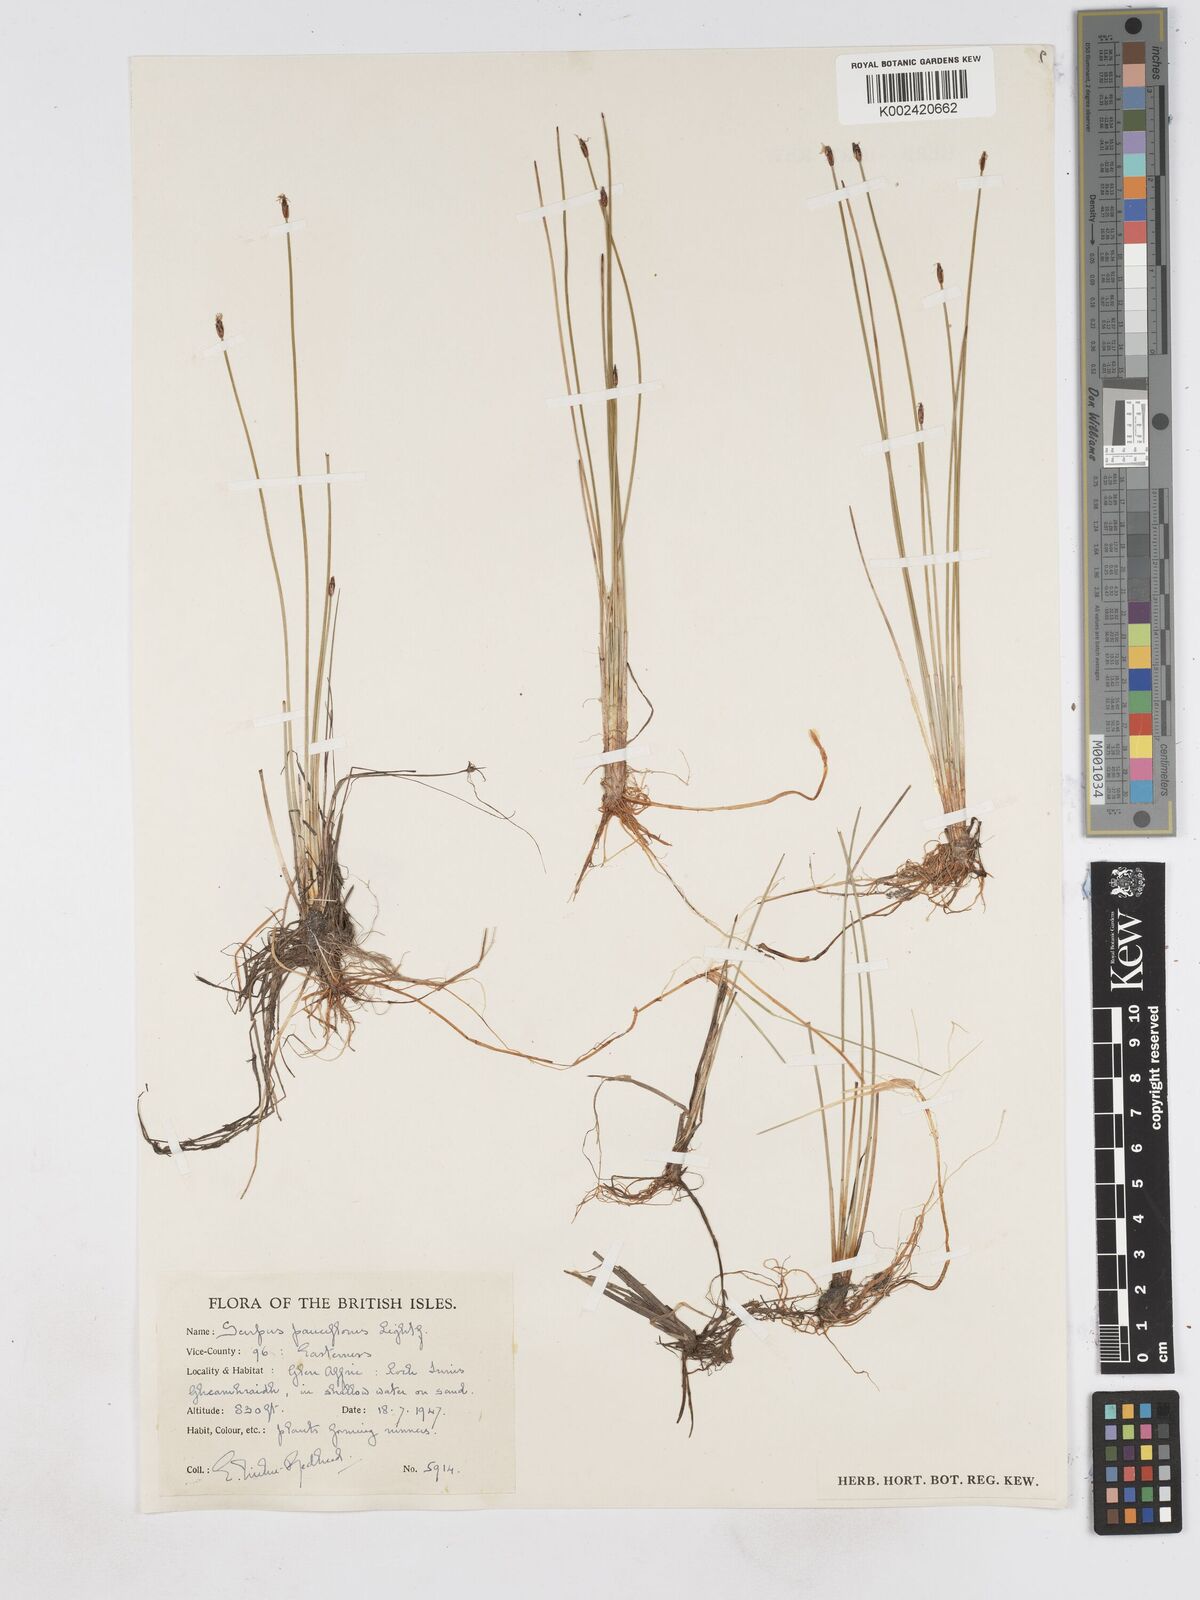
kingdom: Plantae
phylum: Tracheophyta
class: Liliopsida
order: Poales
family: Cyperaceae
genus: Eleocharis
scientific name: Eleocharis quinqueflora
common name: Few-flowered spike-rush
